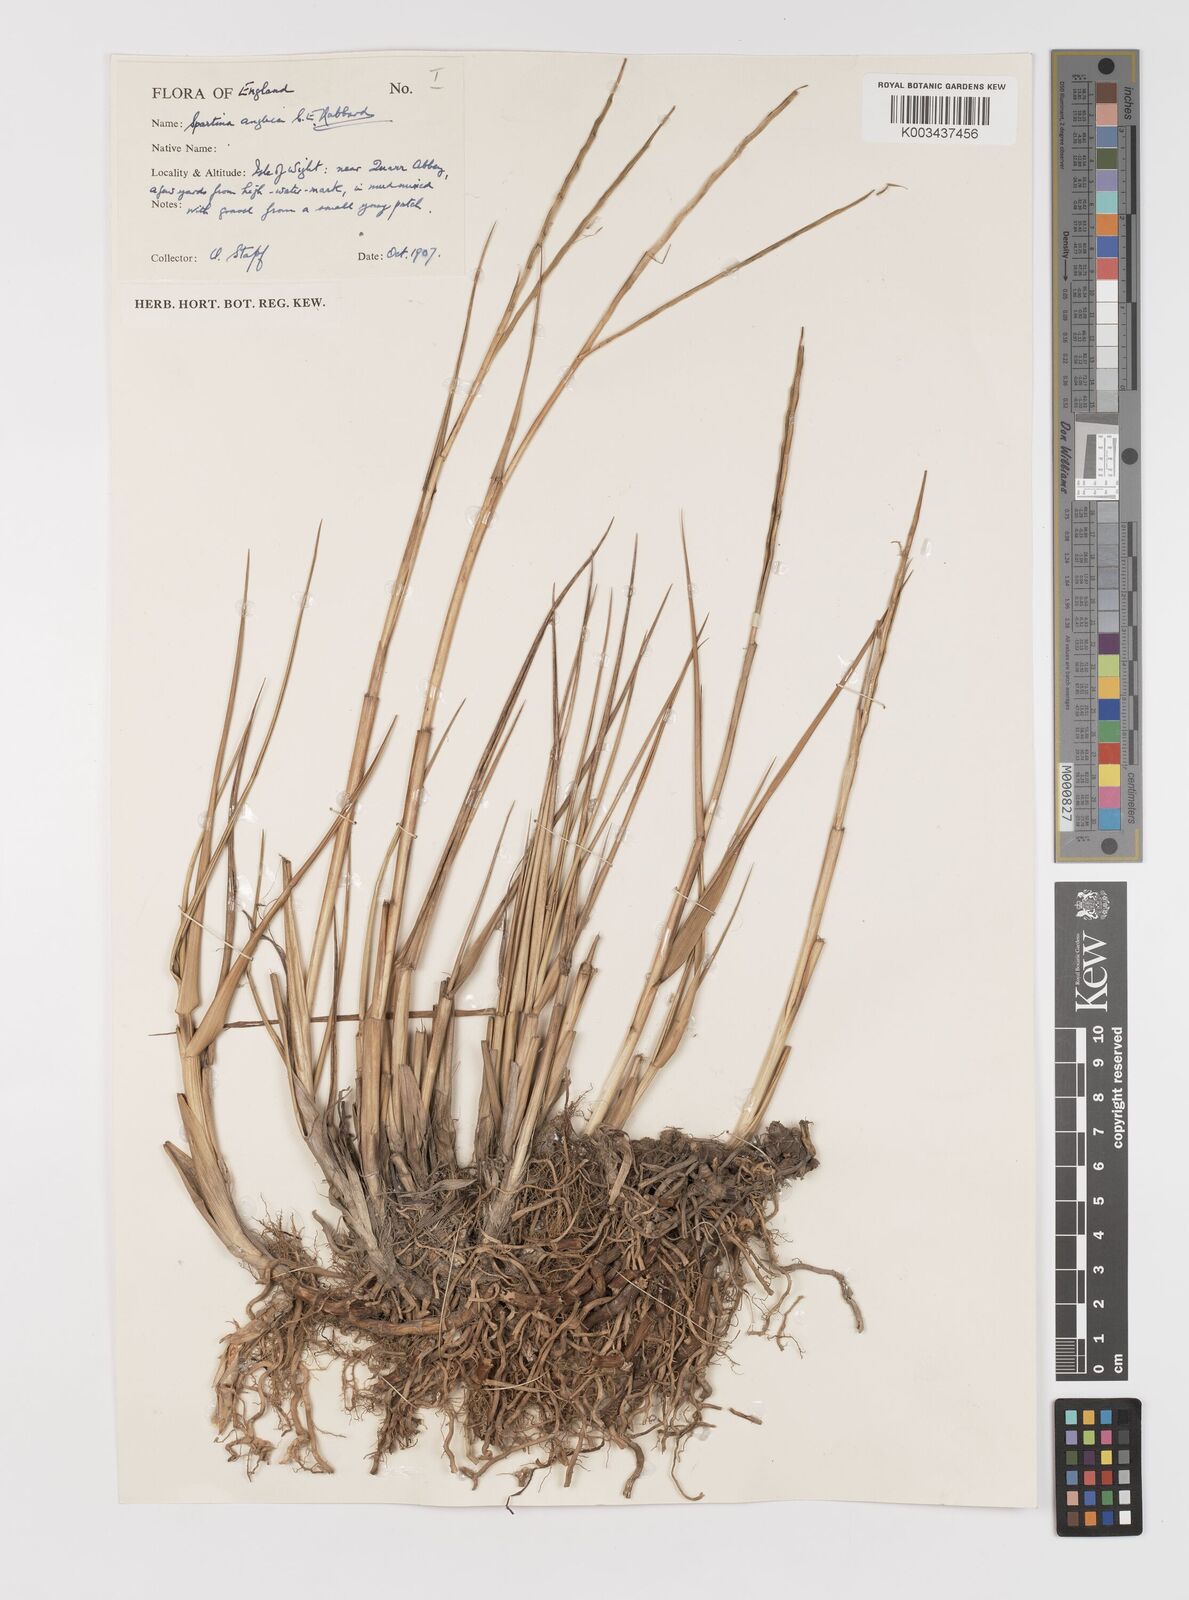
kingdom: Plantae
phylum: Tracheophyta
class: Liliopsida
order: Poales
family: Poaceae
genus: Sporobolus
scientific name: Sporobolus anglicus
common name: English cordgrass
